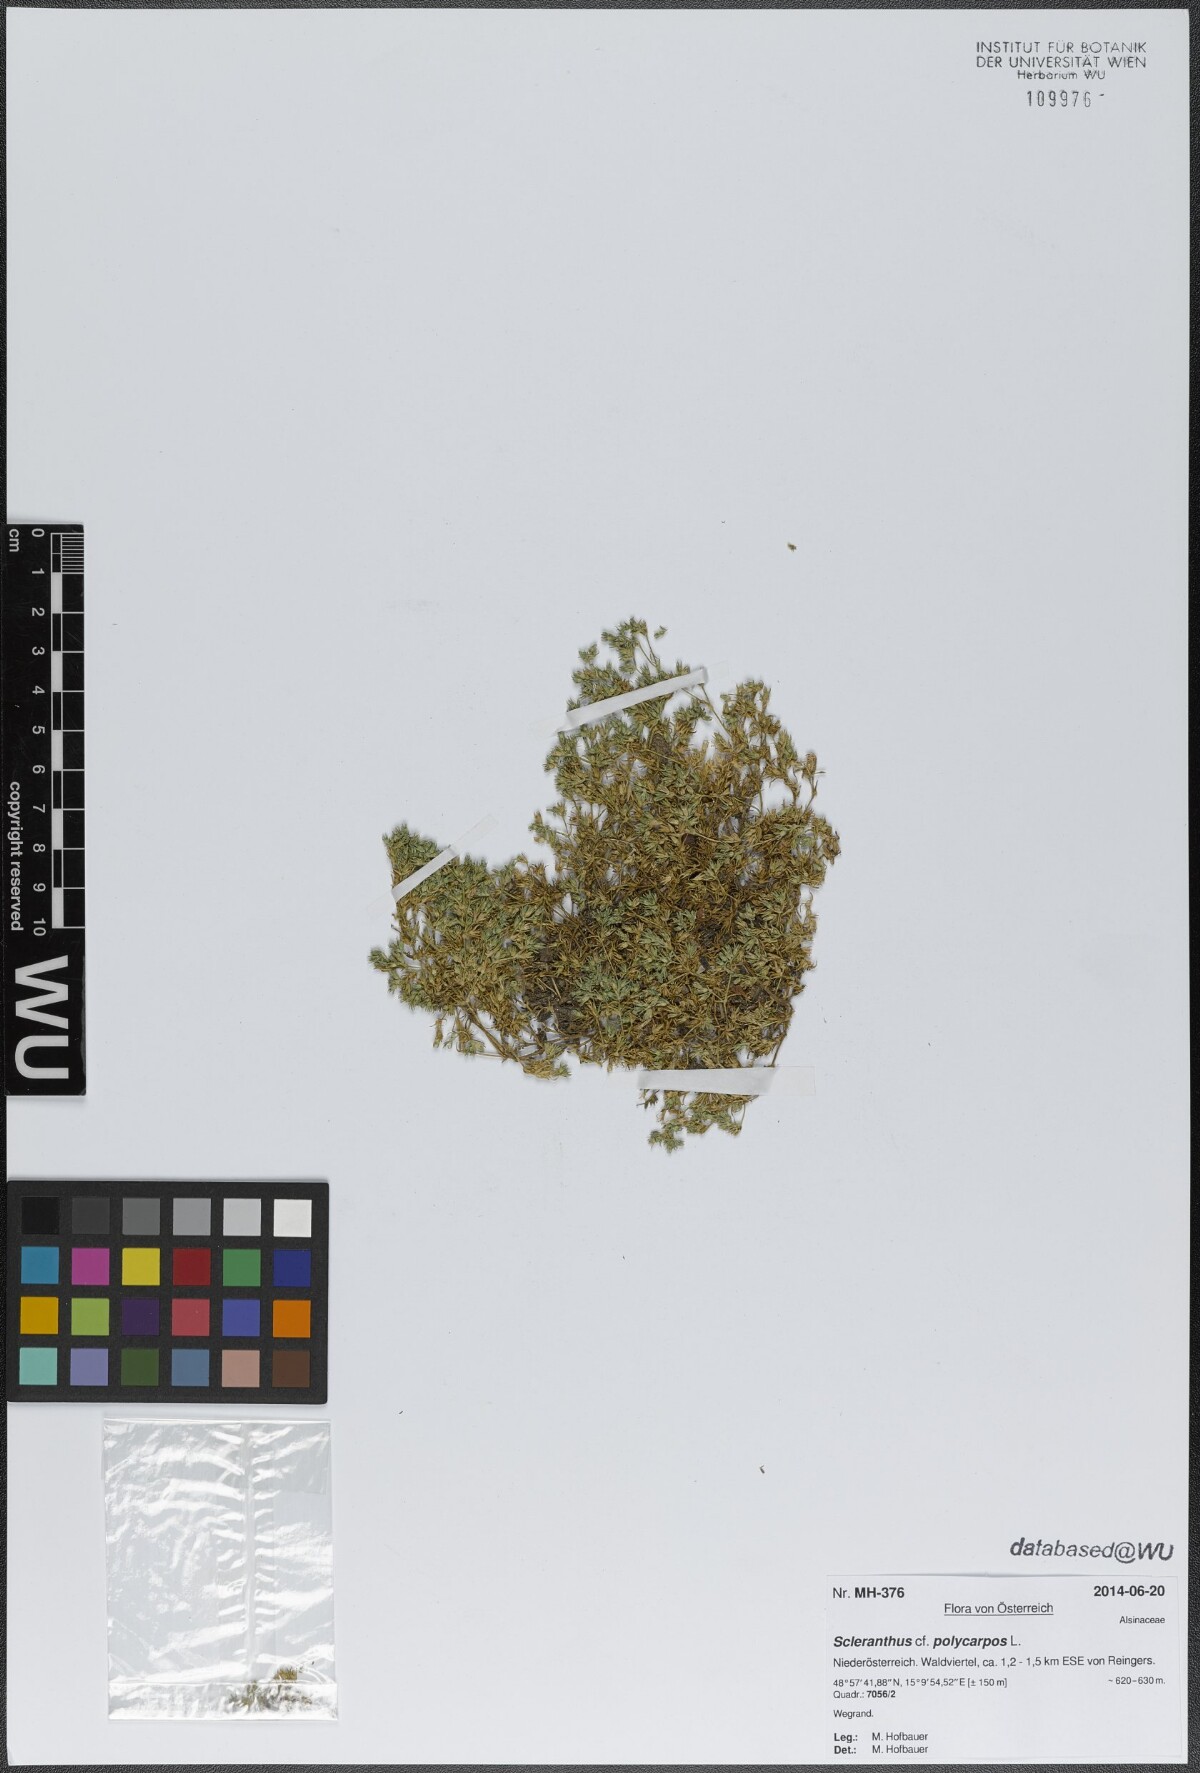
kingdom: Plantae
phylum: Tracheophyta
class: Magnoliopsida
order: Caryophyllales
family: Caryophyllaceae
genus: Scleranthus
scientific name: Scleranthus annuus
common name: Annual knawel
